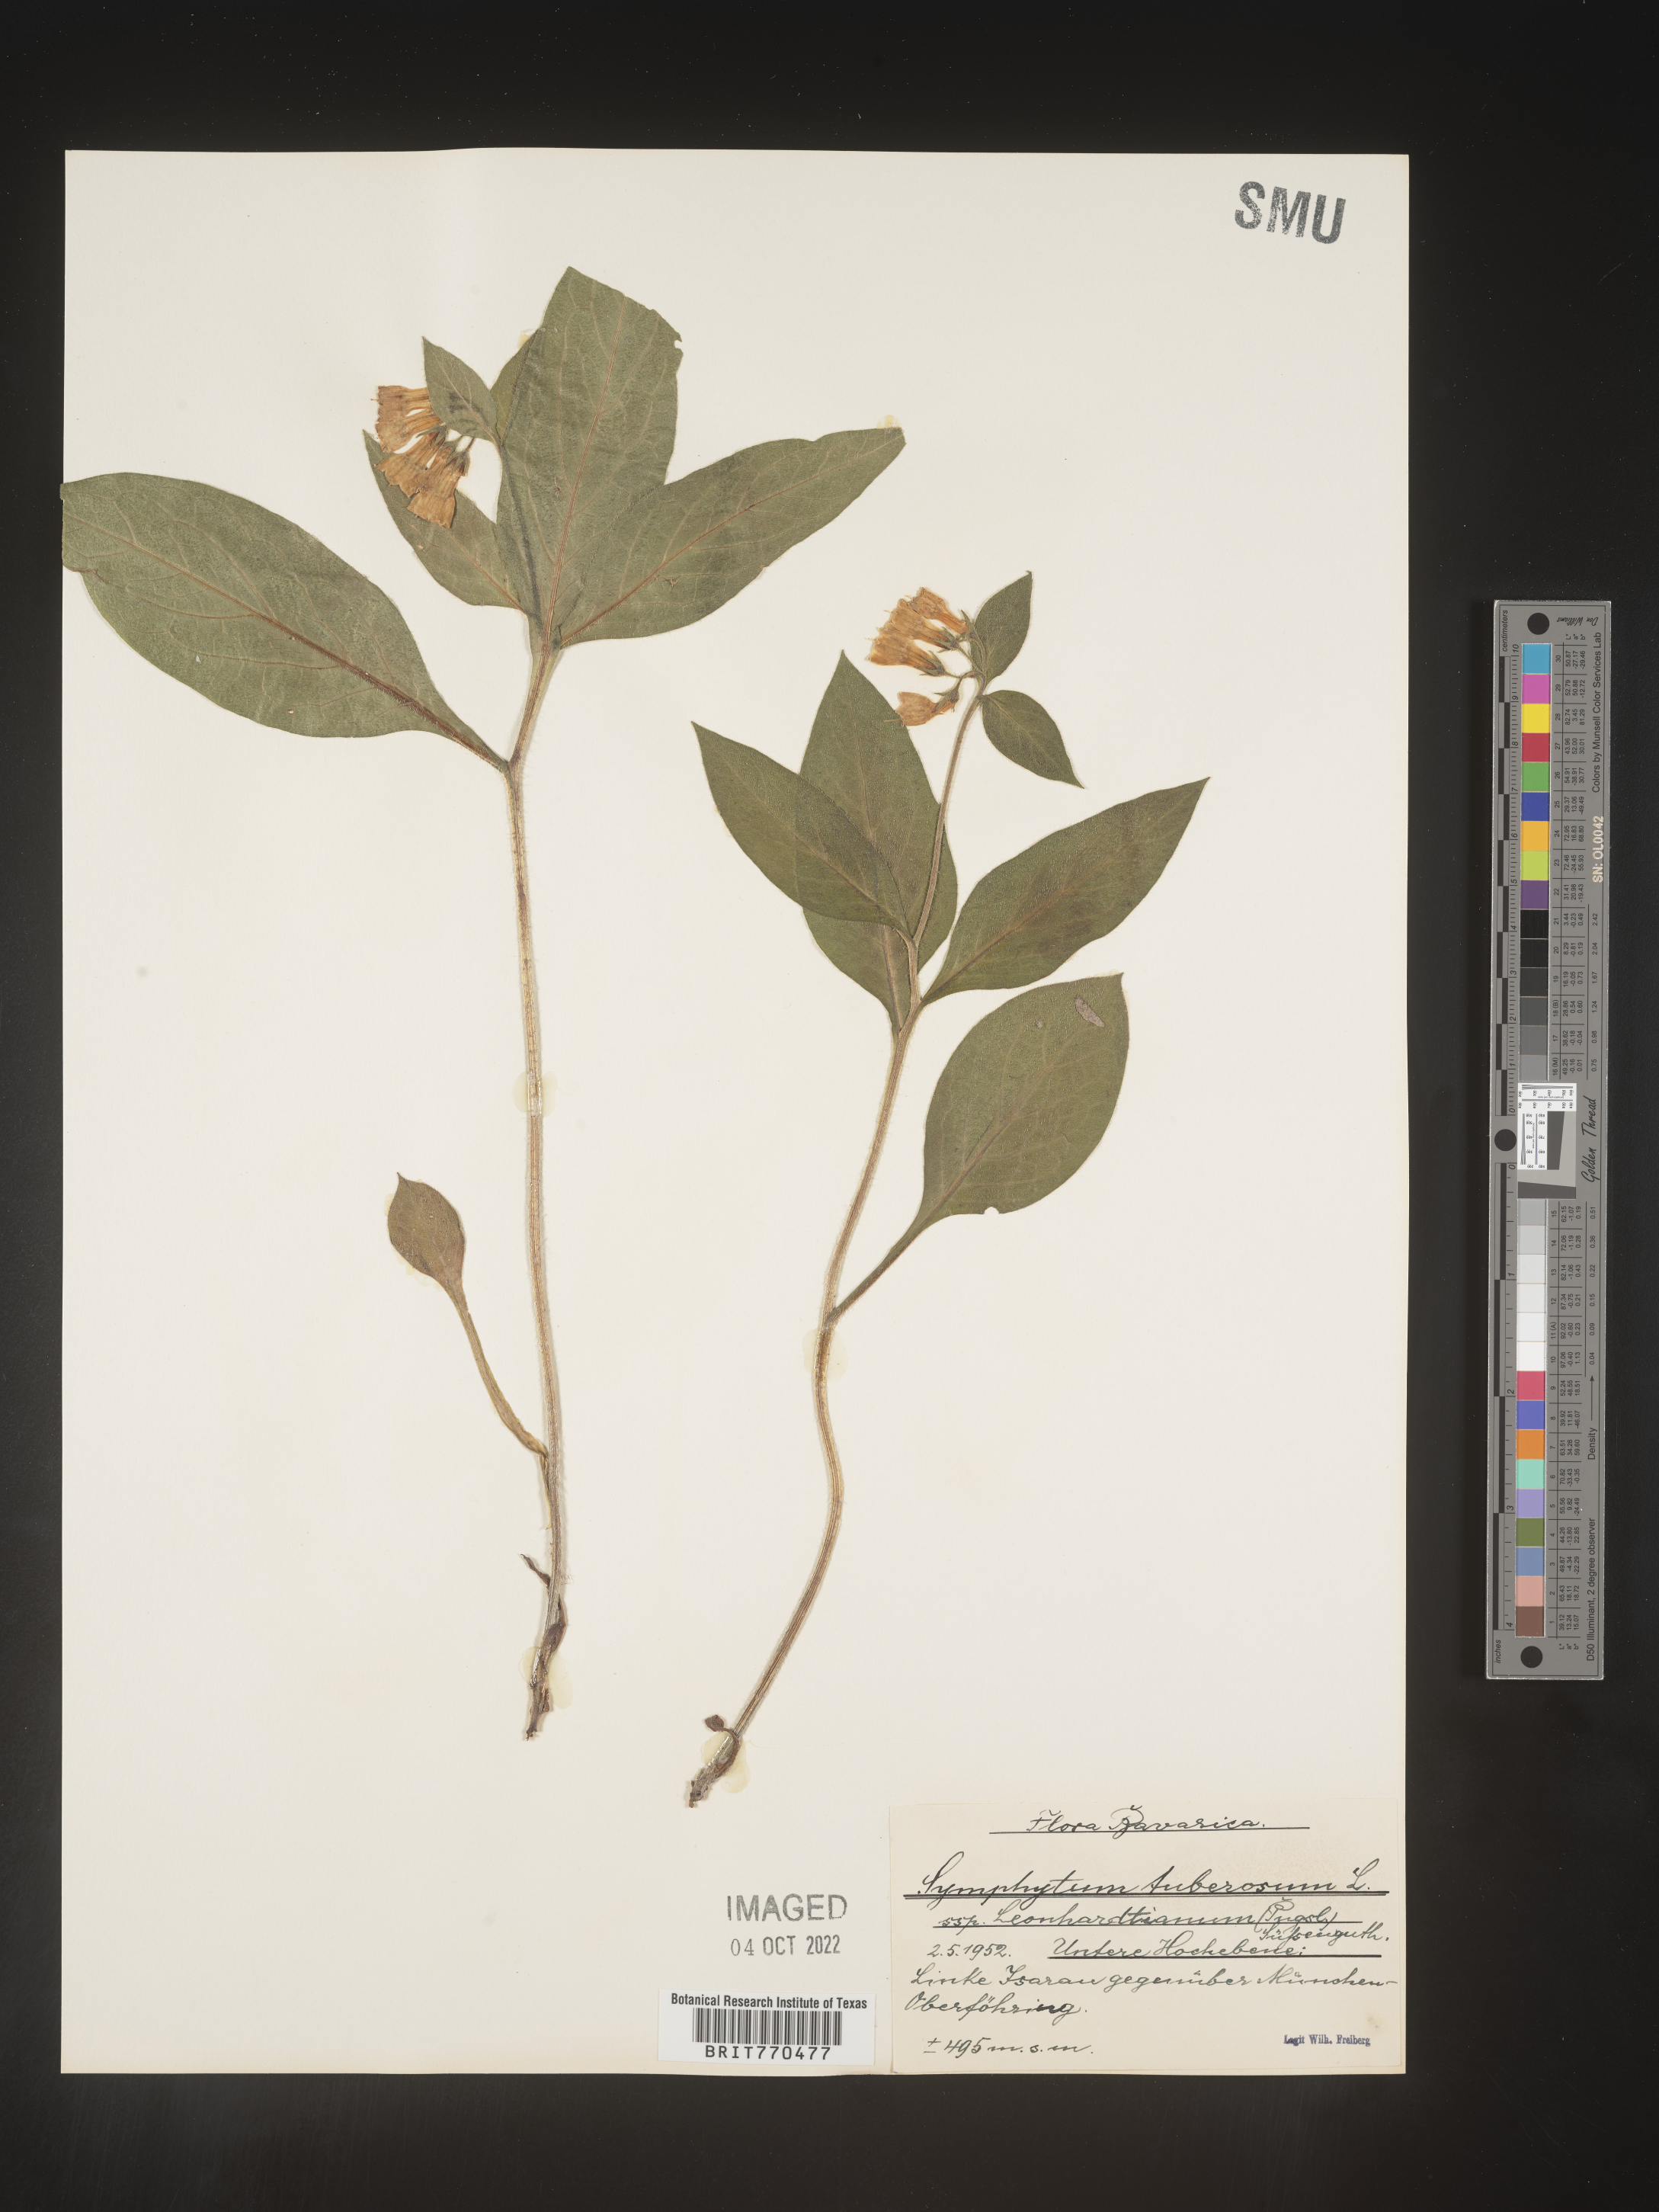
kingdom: Plantae
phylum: Tracheophyta
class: Magnoliopsida
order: Boraginales
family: Boraginaceae
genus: Symphytum
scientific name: Symphytum
